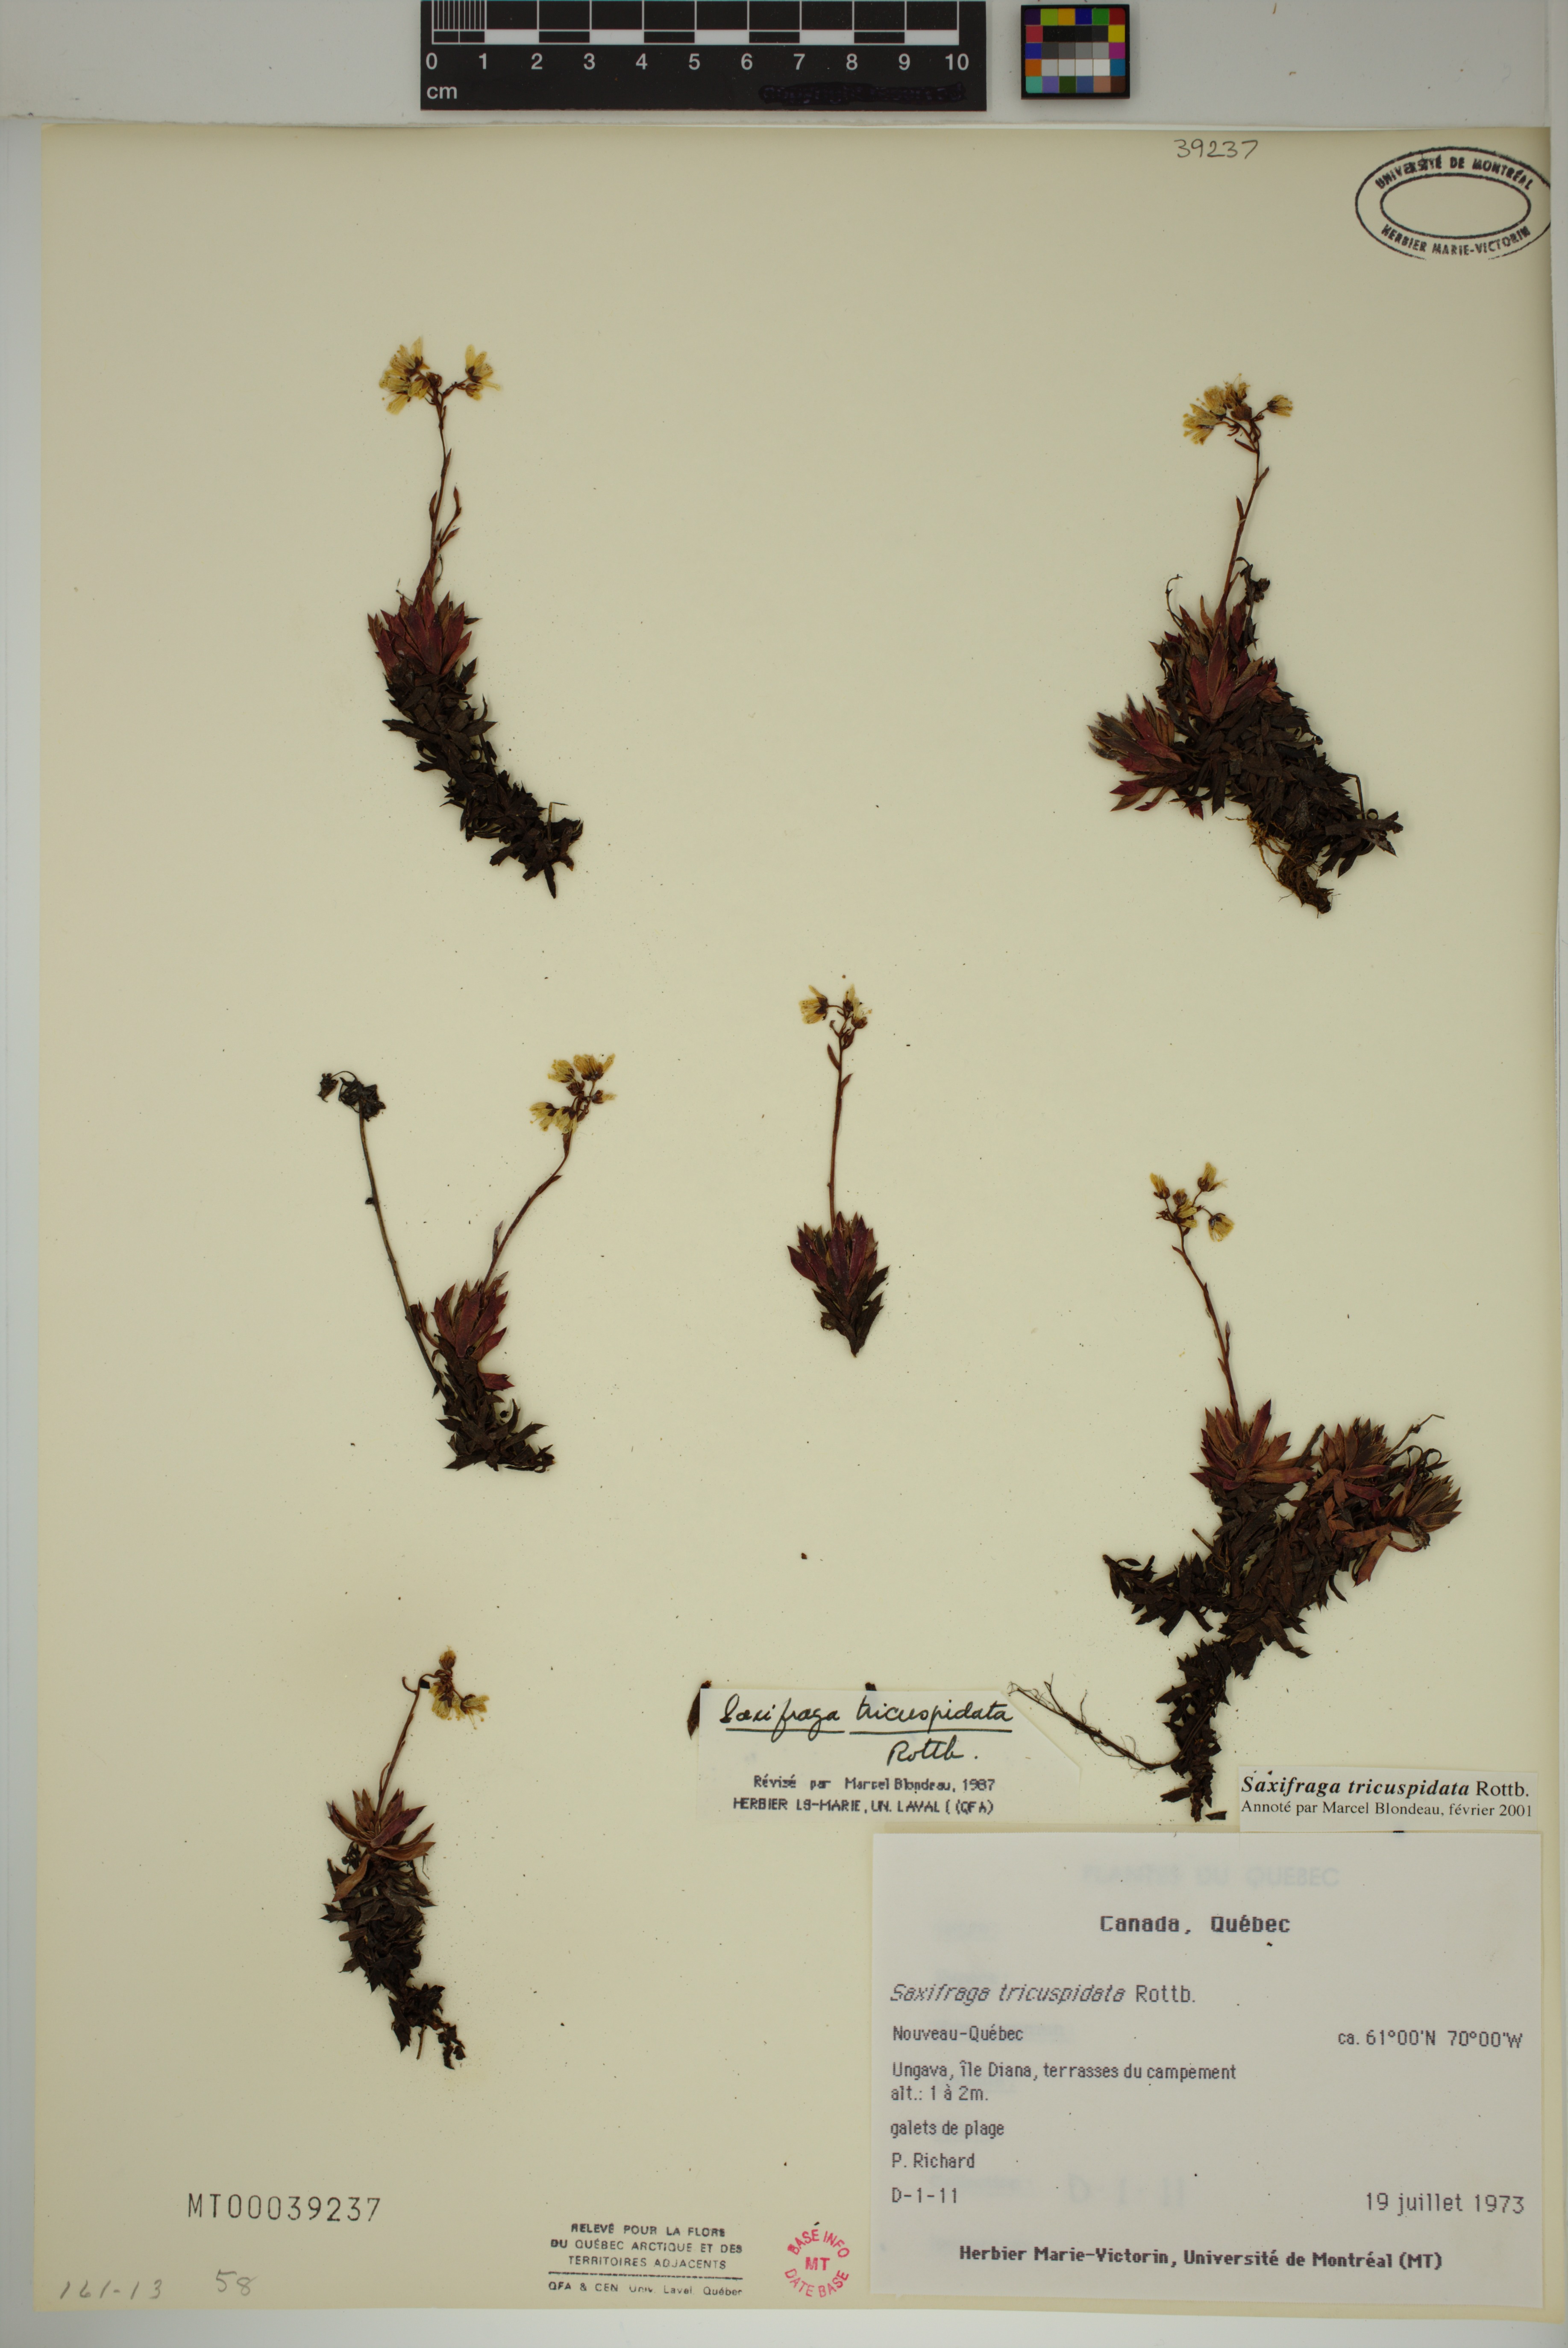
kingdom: Plantae
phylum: Tracheophyta
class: Magnoliopsida
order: Saxifragales
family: Saxifragaceae
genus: Saxifraga
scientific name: Saxifraga tricuspidata
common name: Prickly saxifrage
